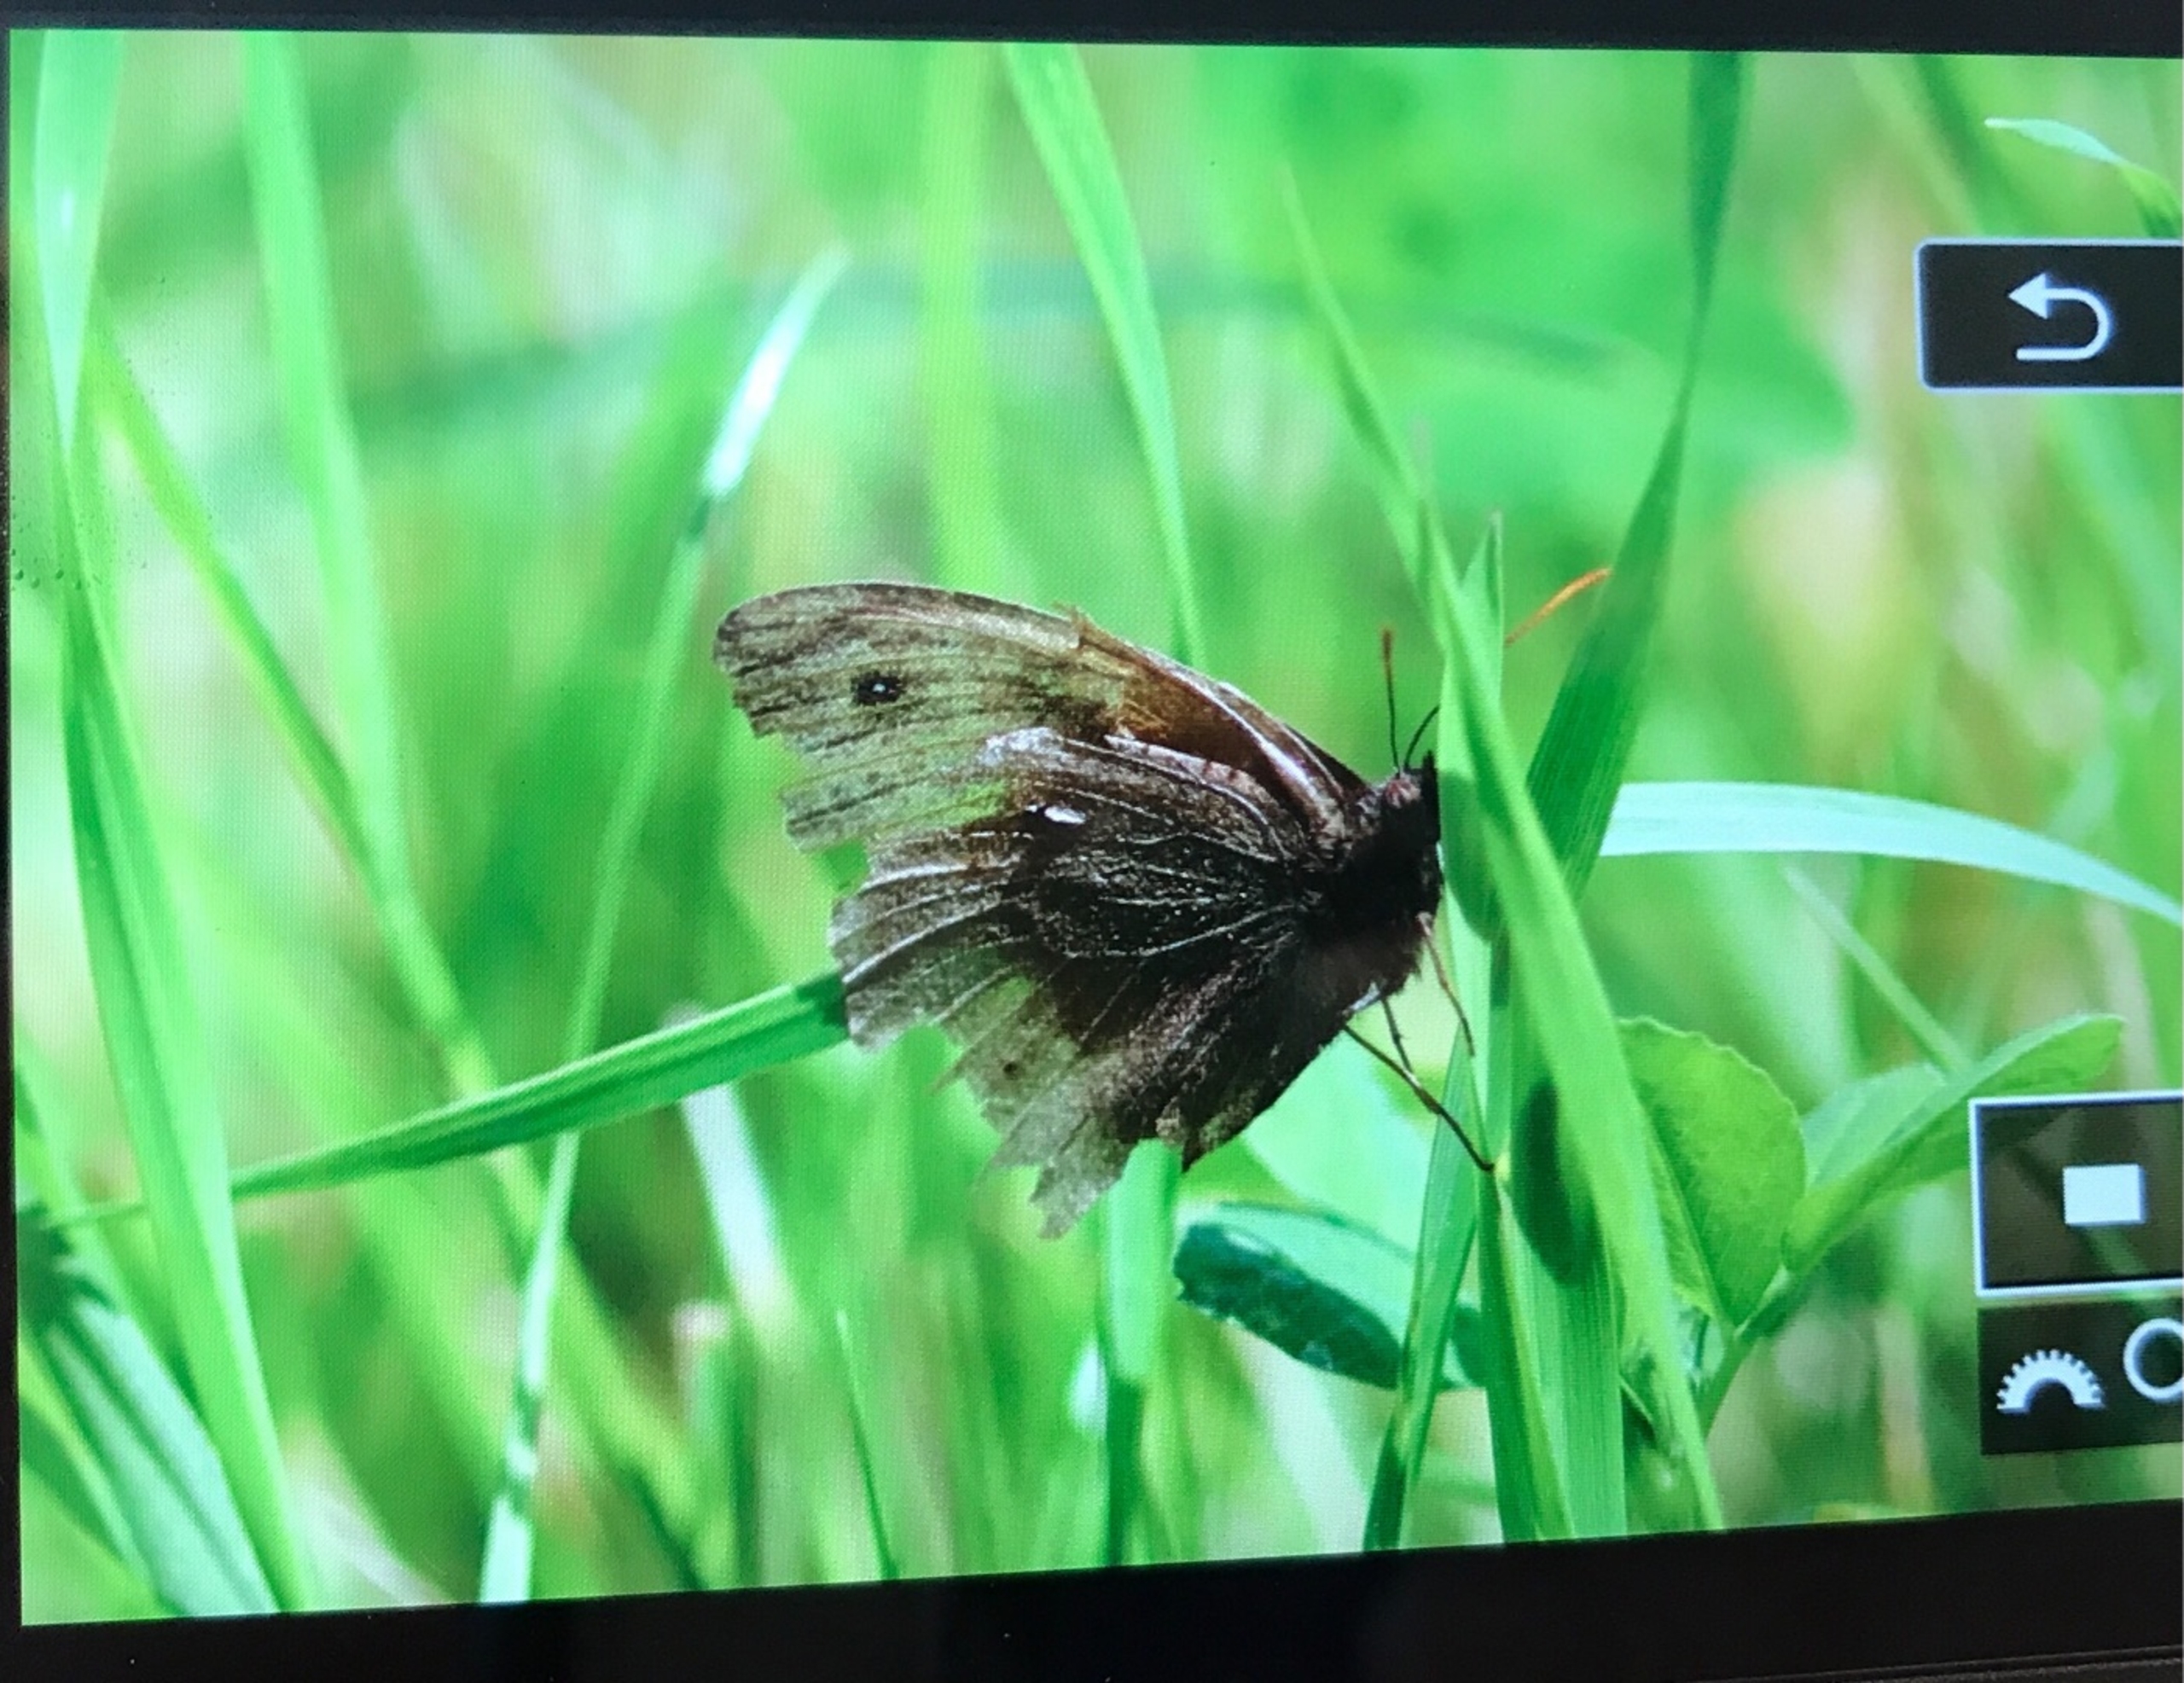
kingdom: Animalia
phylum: Arthropoda
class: Insecta
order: Lepidoptera
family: Nymphalidae
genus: Maniola
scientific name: Maniola jurtina
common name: Græsrandøje
